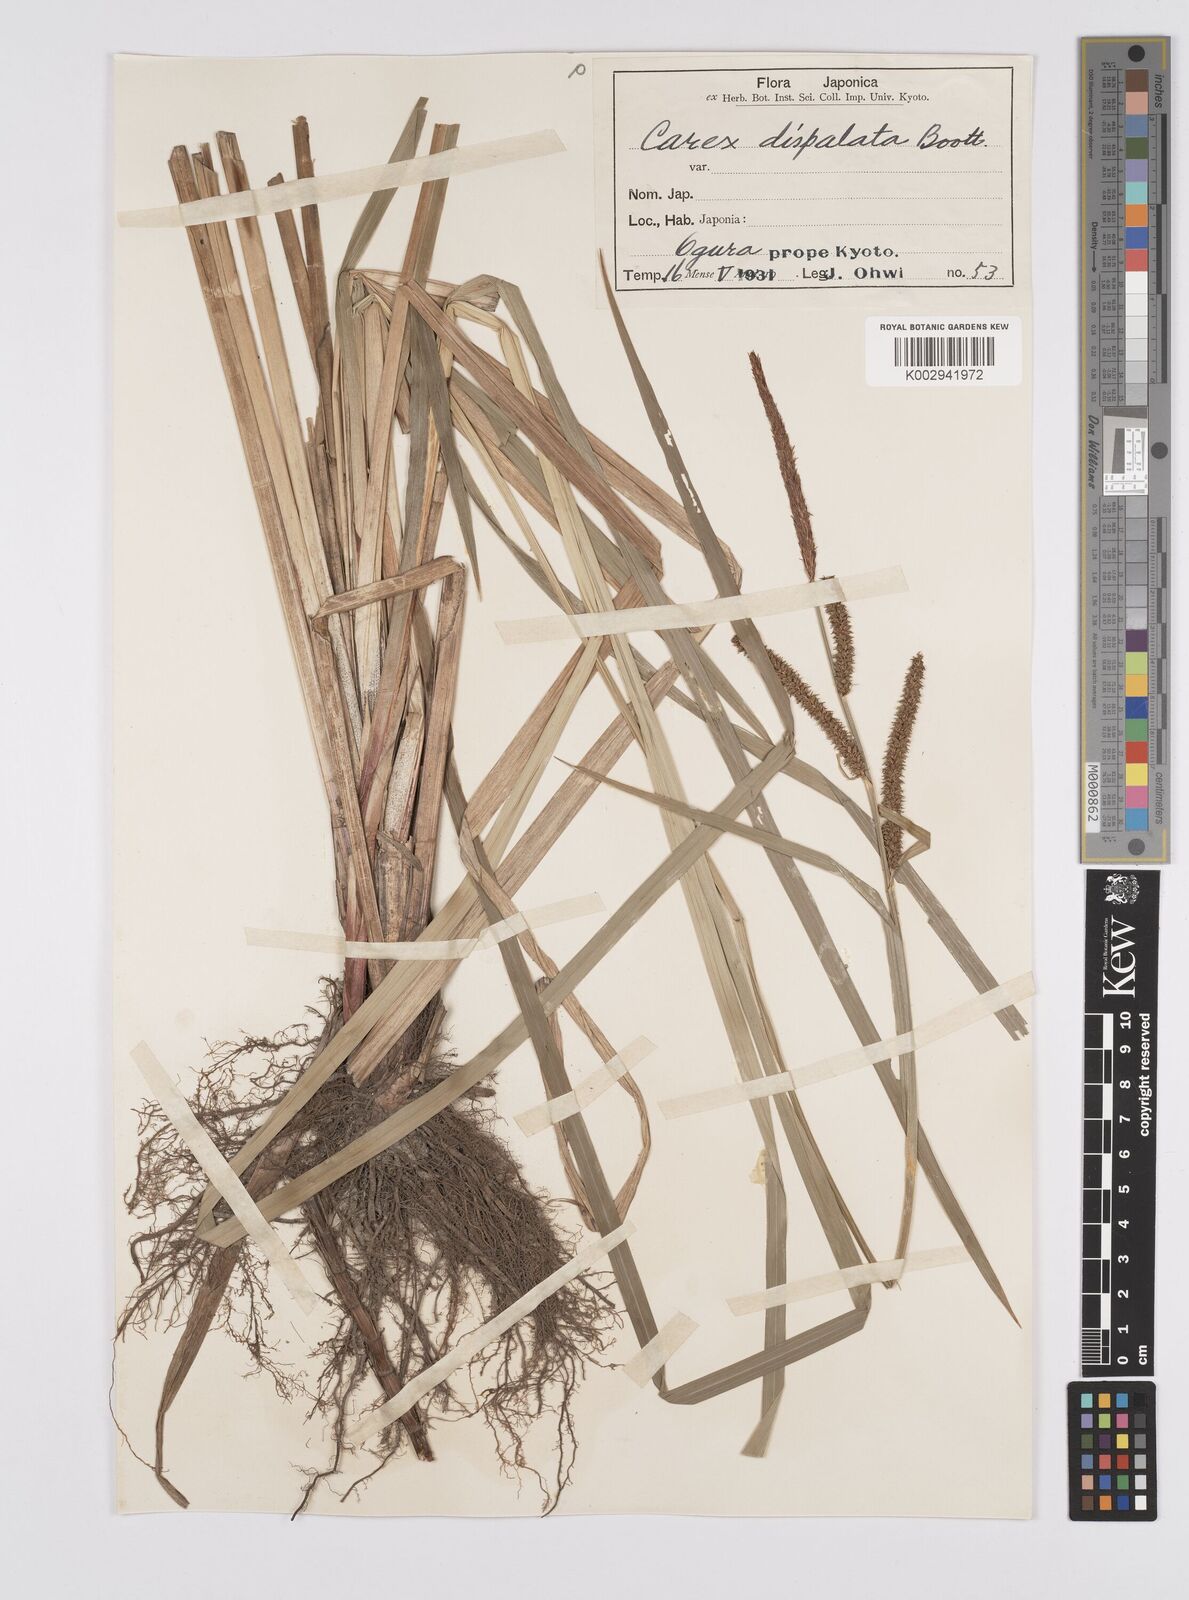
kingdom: Plantae
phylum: Tracheophyta
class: Liliopsida
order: Poales
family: Cyperaceae
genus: Carex
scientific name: Carex dispalata
